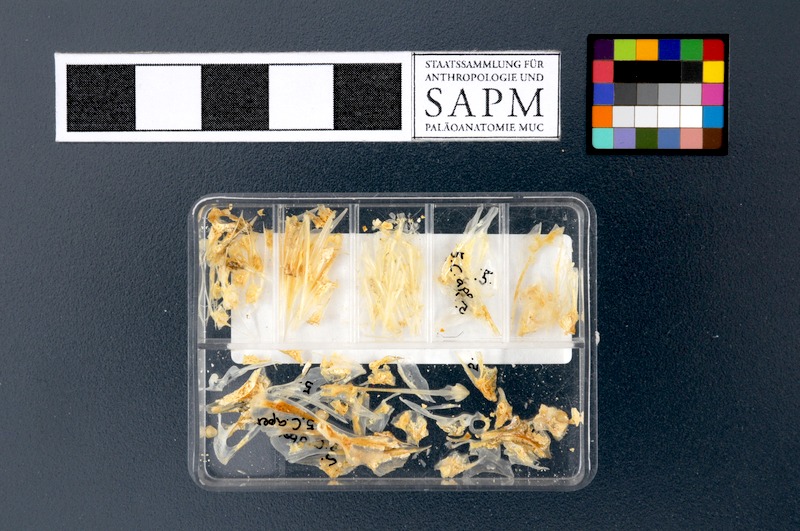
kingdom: Animalia
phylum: Chordata
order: Perciformes
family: Caproidae
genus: Capros
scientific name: Capros aper
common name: Boarfish
